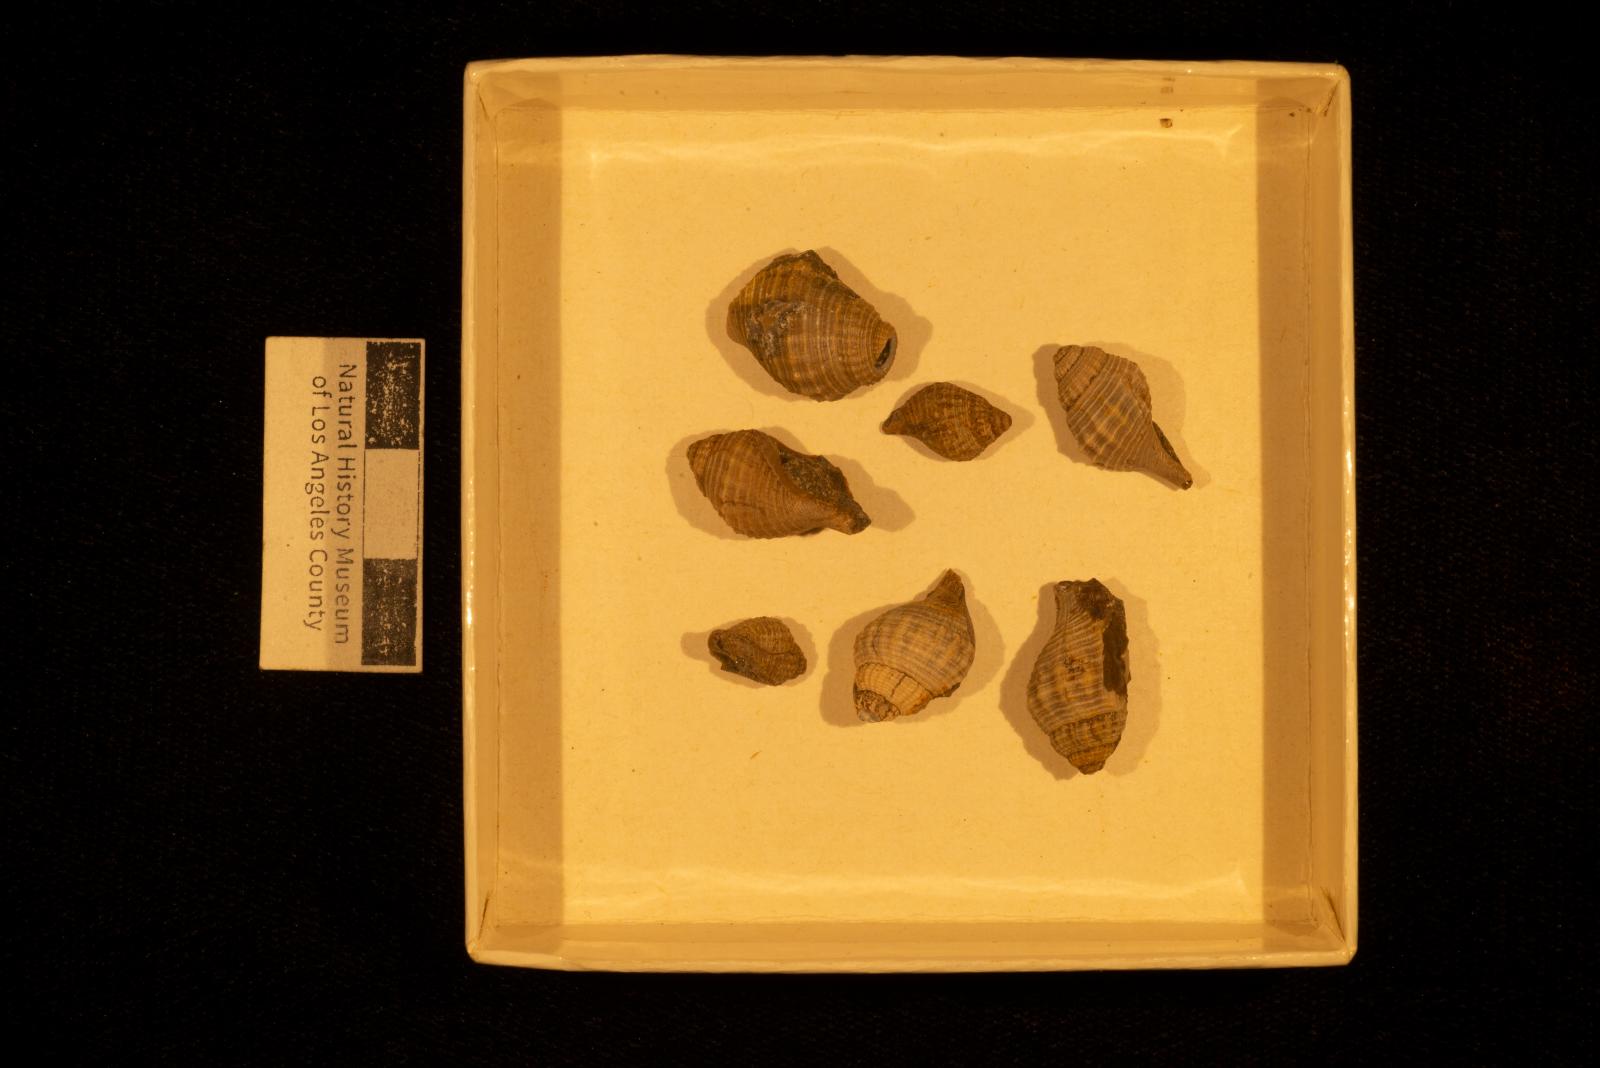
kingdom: Animalia
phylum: Mollusca
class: Gastropoda
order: Neogastropoda
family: Perissityidae
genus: Murphitys
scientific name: Murphitys michaeli
